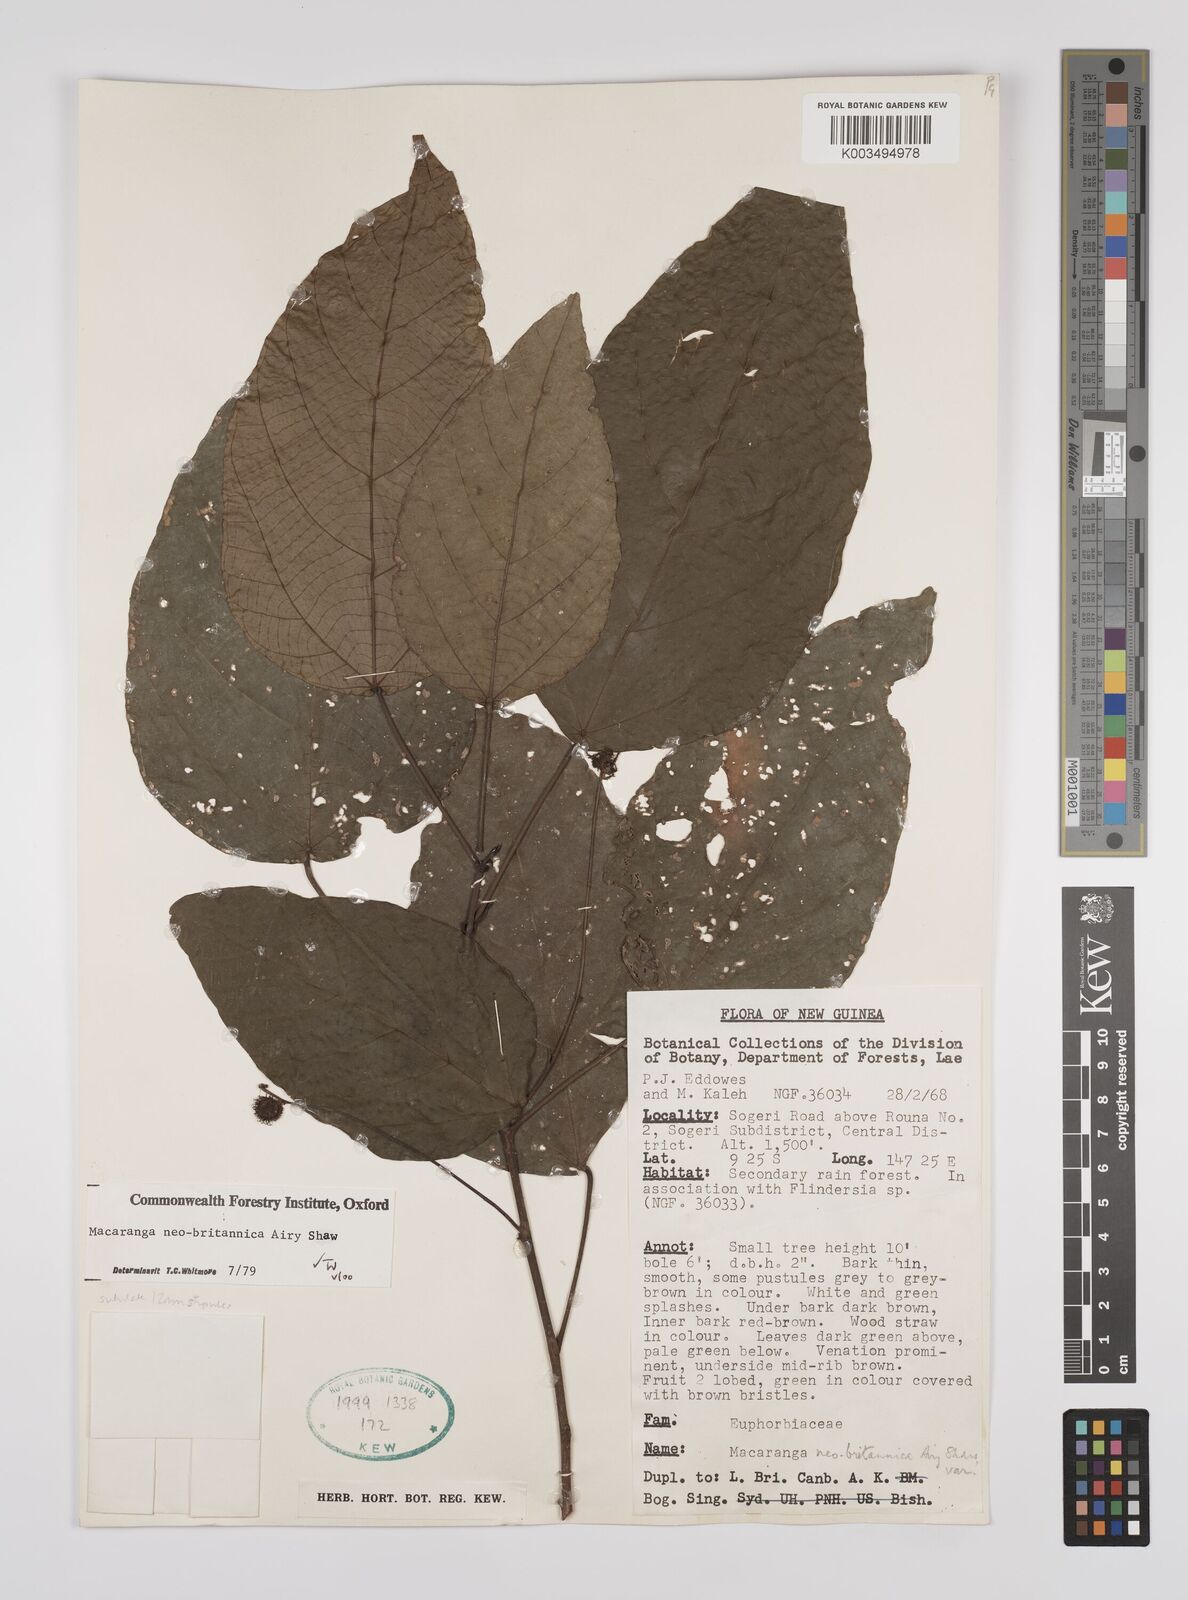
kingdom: Plantae
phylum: Tracheophyta
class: Magnoliopsida
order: Malpighiales
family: Euphorbiaceae
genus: Macaranga
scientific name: Macaranga neobritannica
